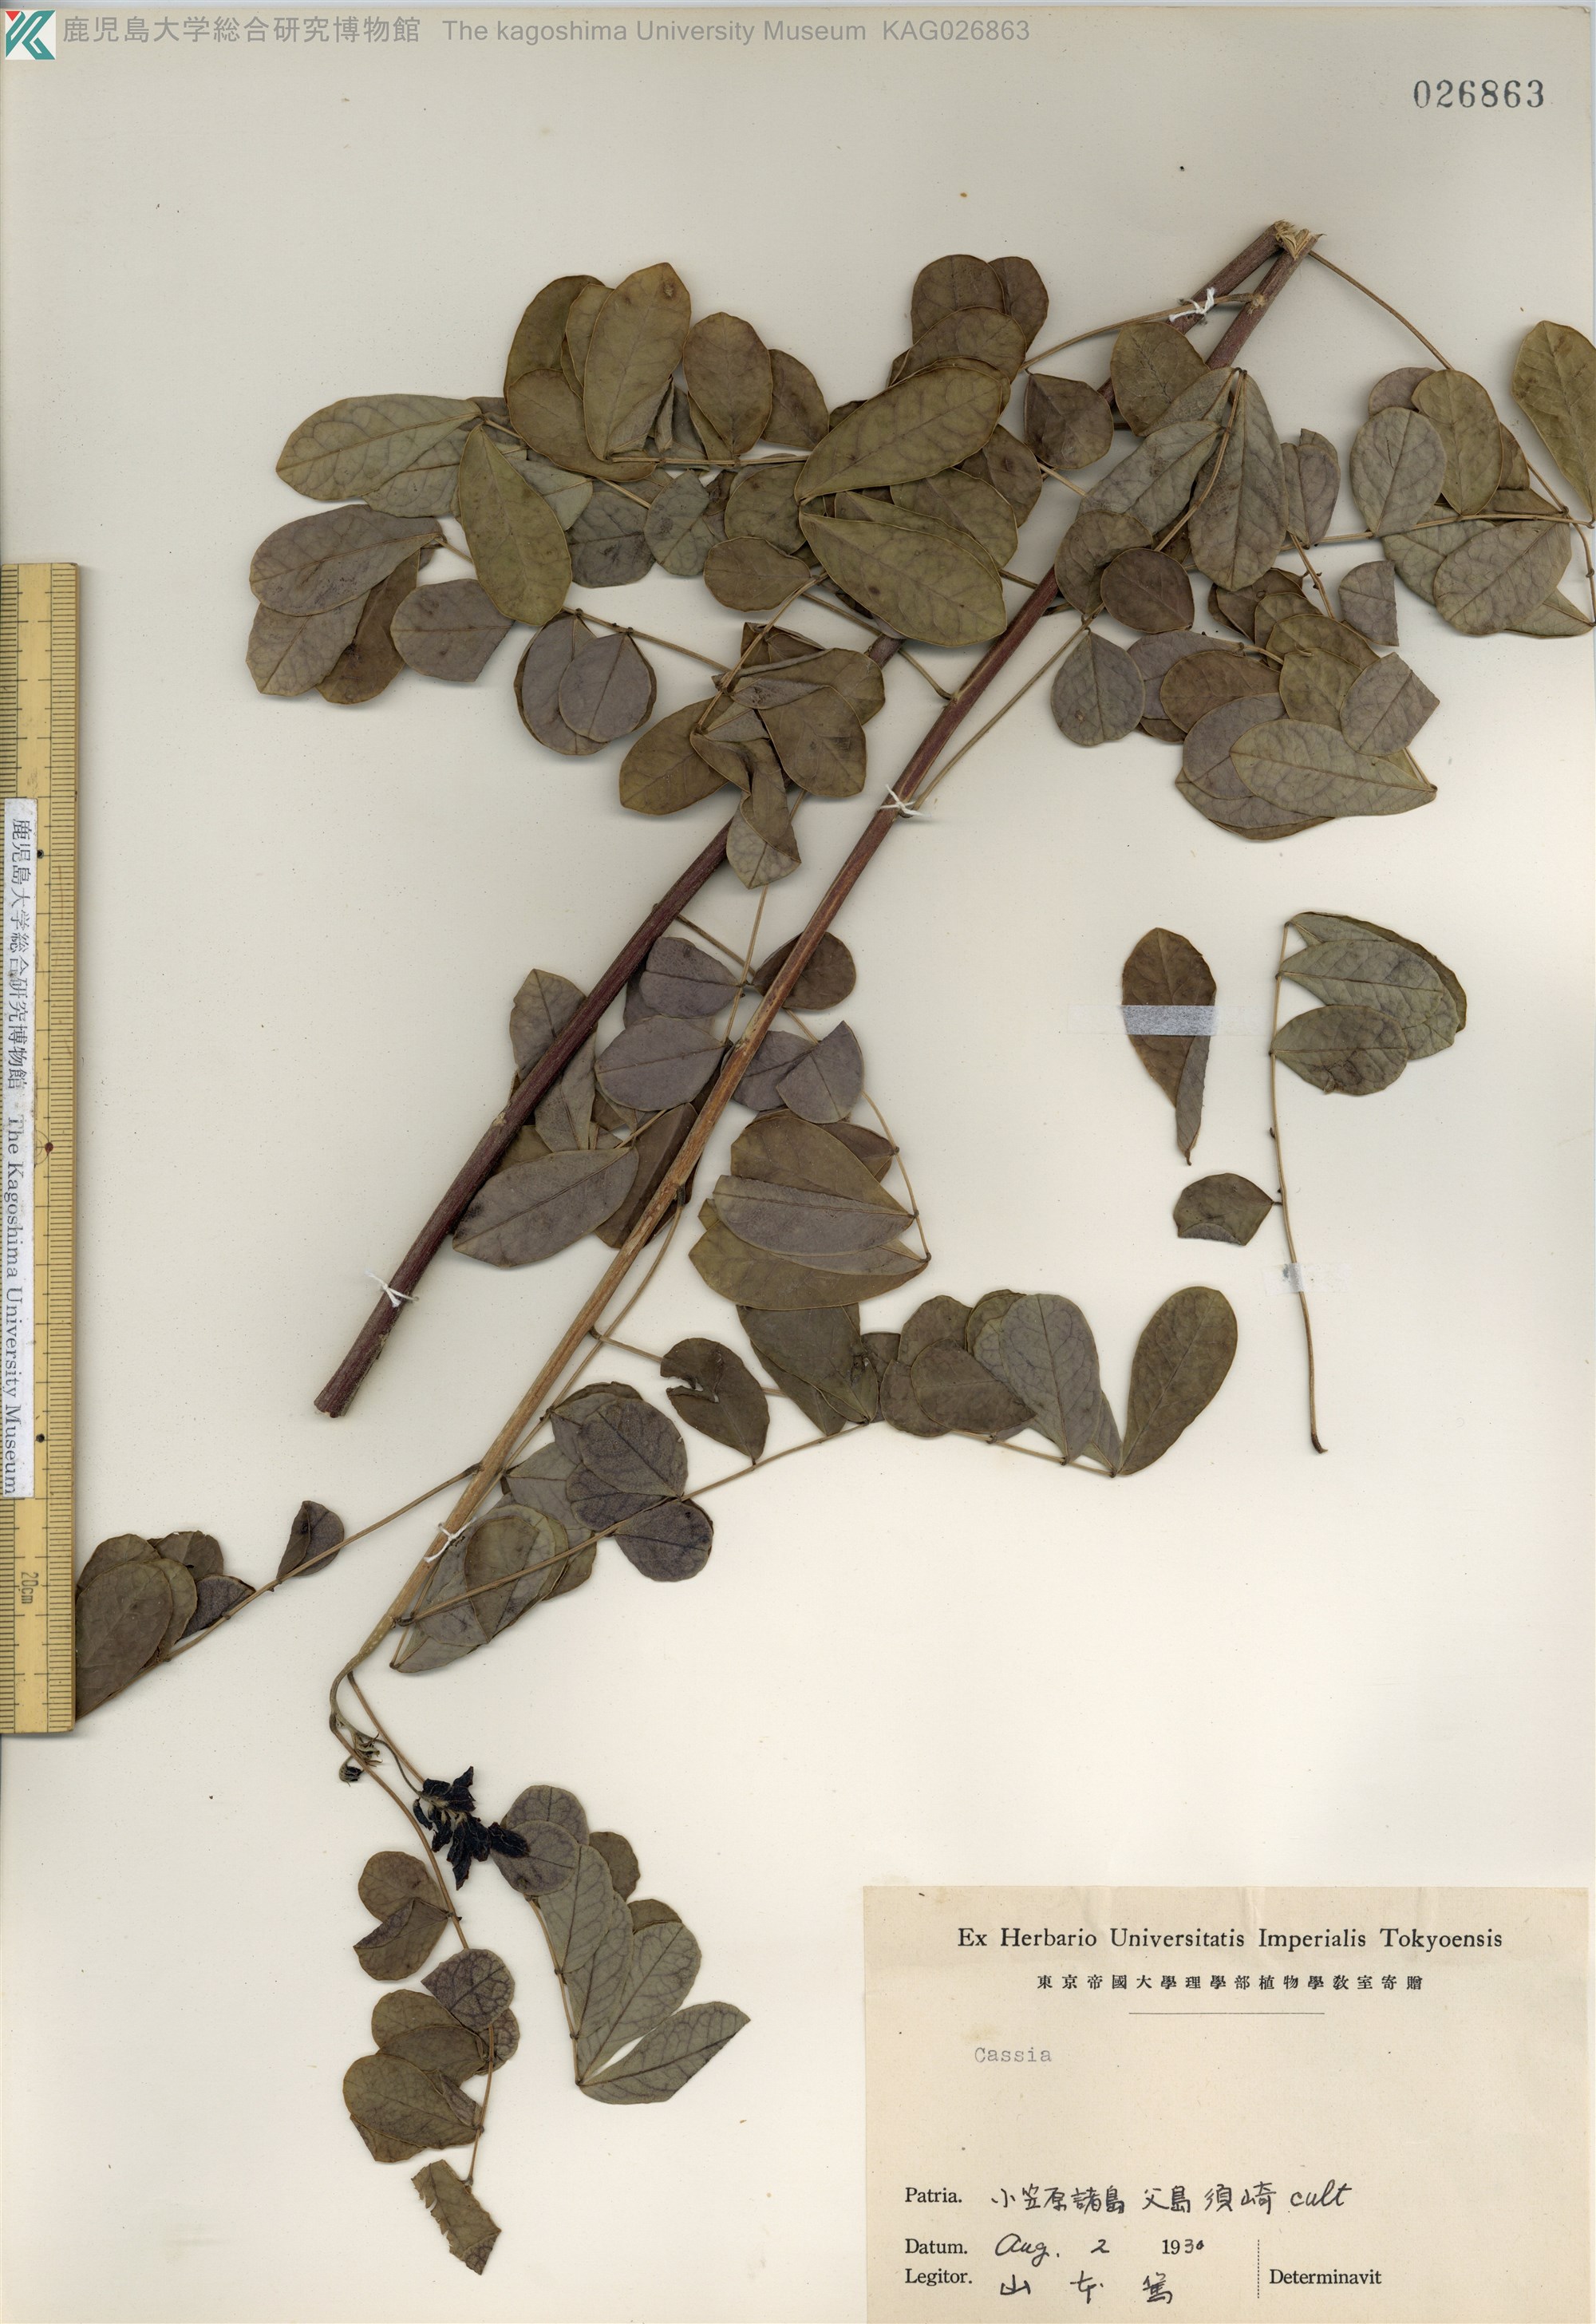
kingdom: Plantae
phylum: Tracheophyta
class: Magnoliopsida
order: Fabales
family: Fabaceae
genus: Cassia
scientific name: Cassia
